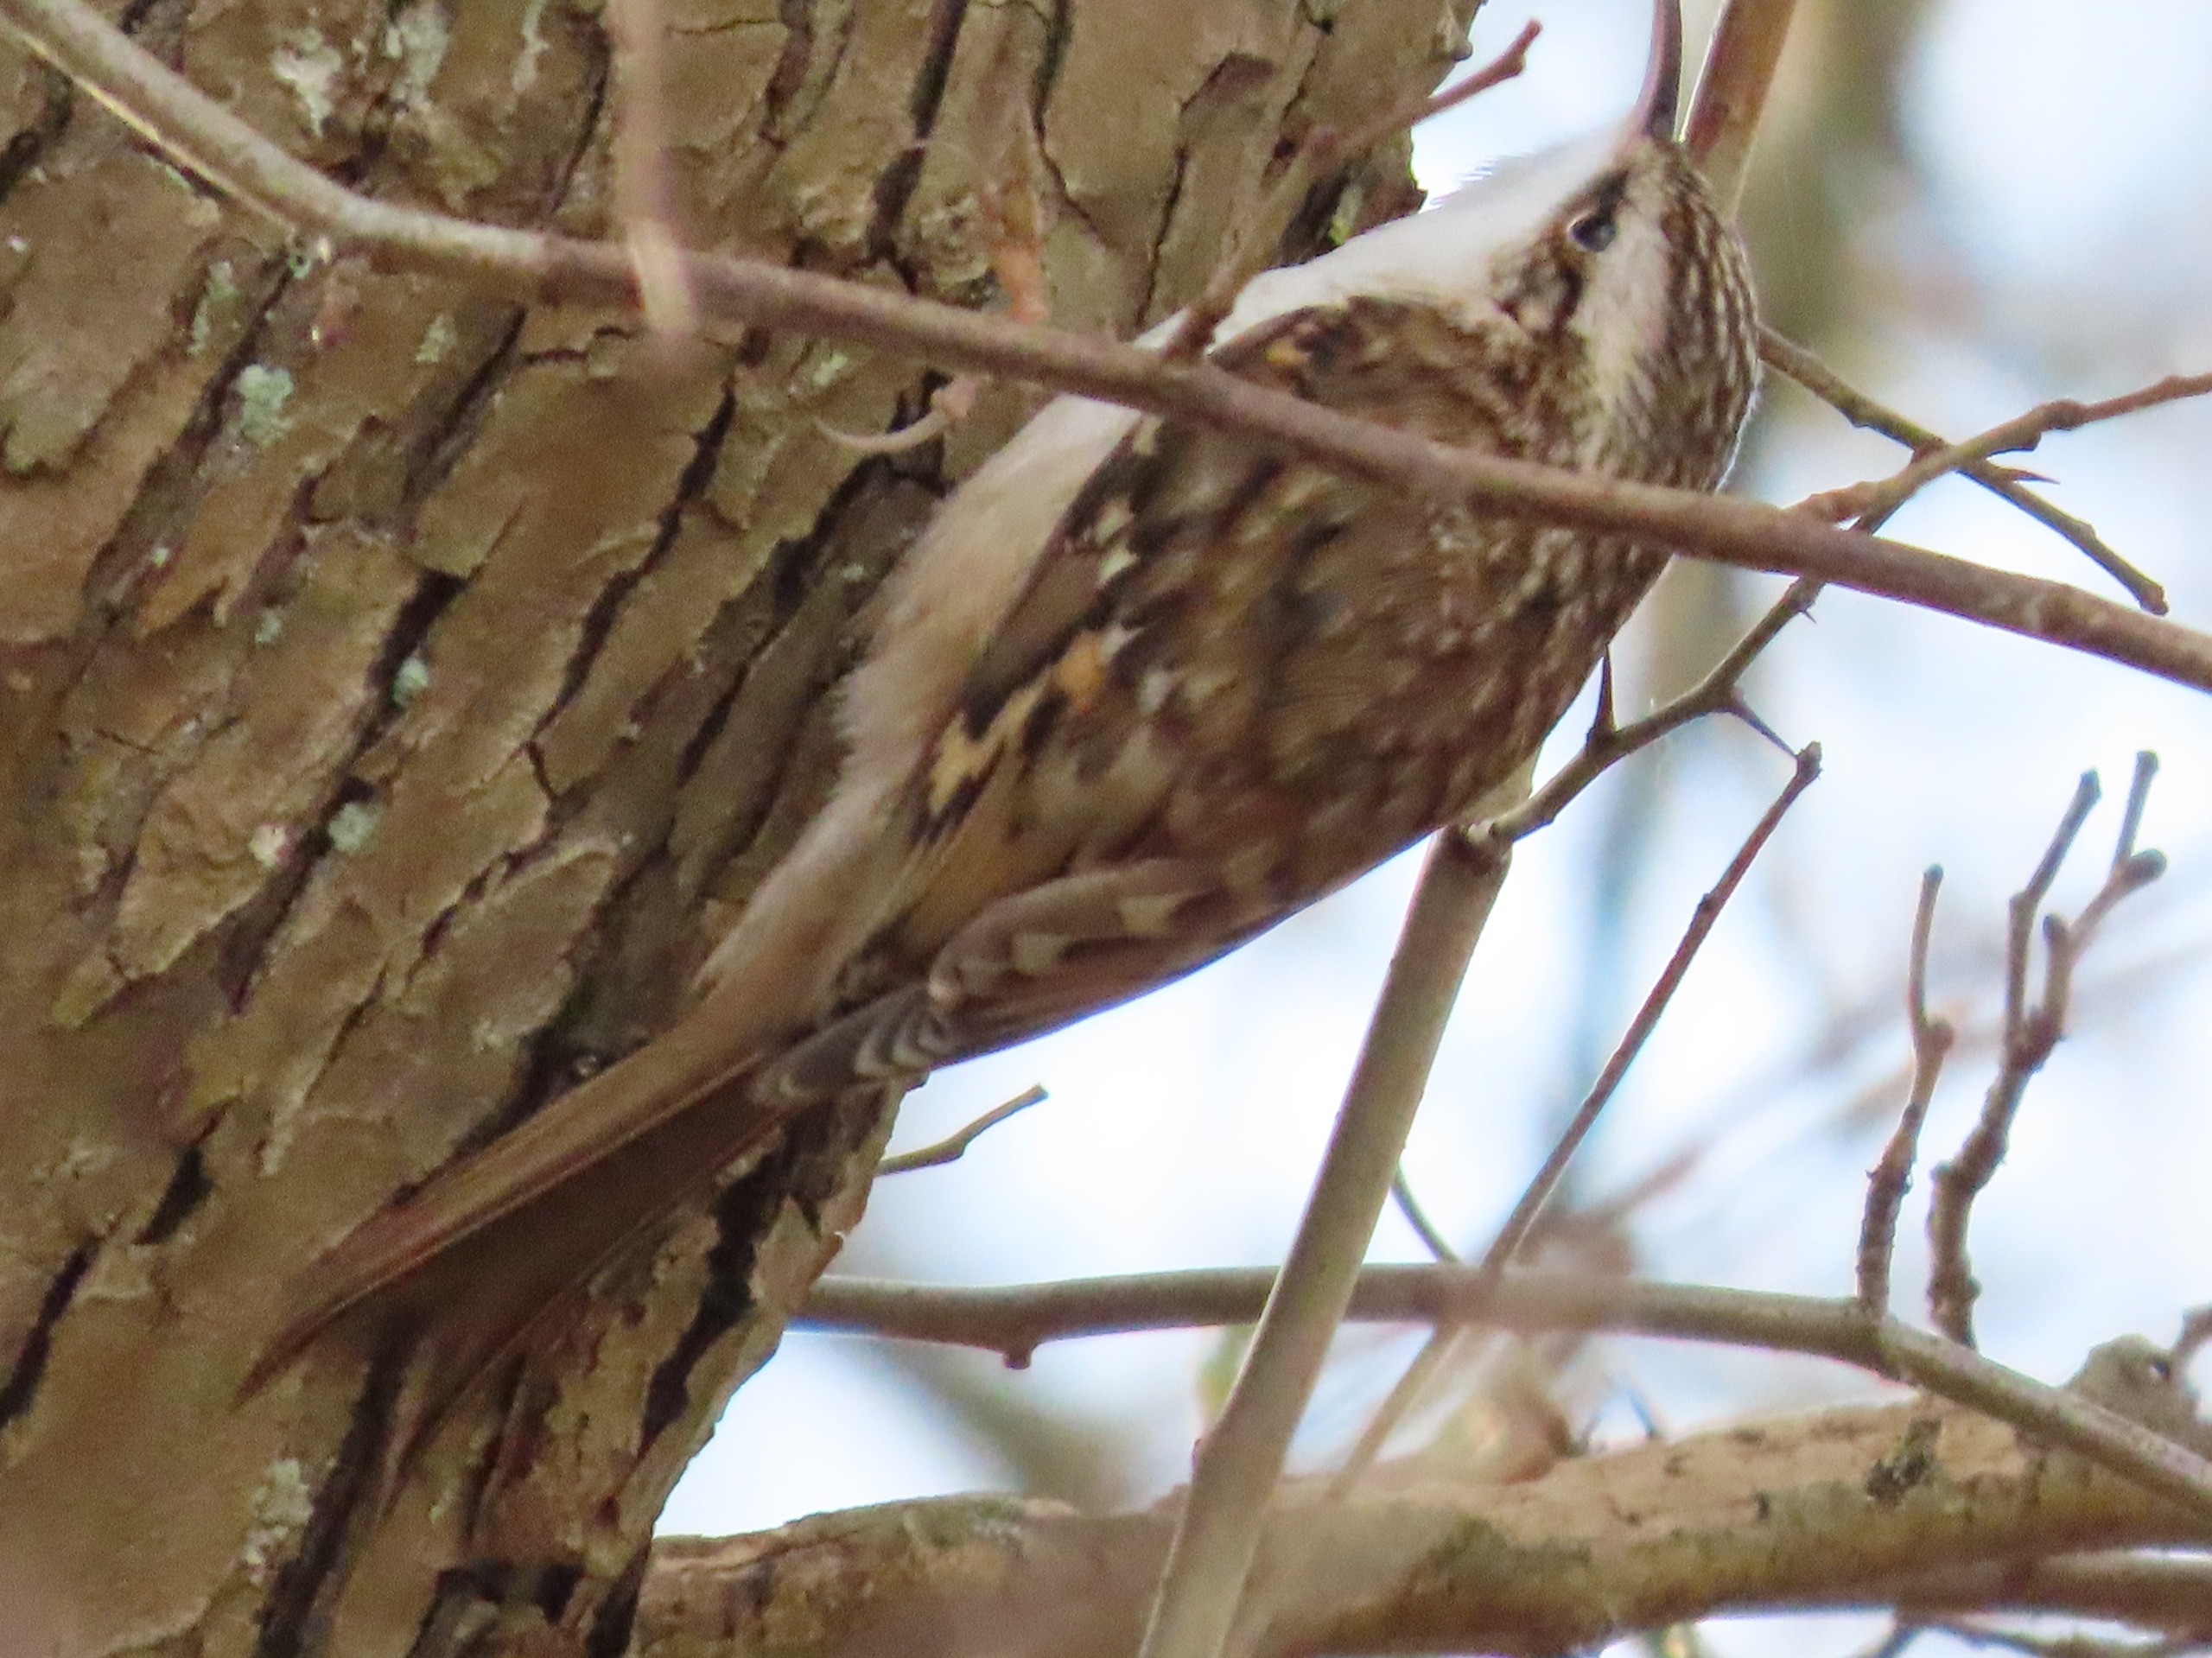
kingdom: Animalia
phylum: Chordata
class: Aves
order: Passeriformes
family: Certhiidae
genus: Certhia
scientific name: Certhia familiaris
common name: Træløber
